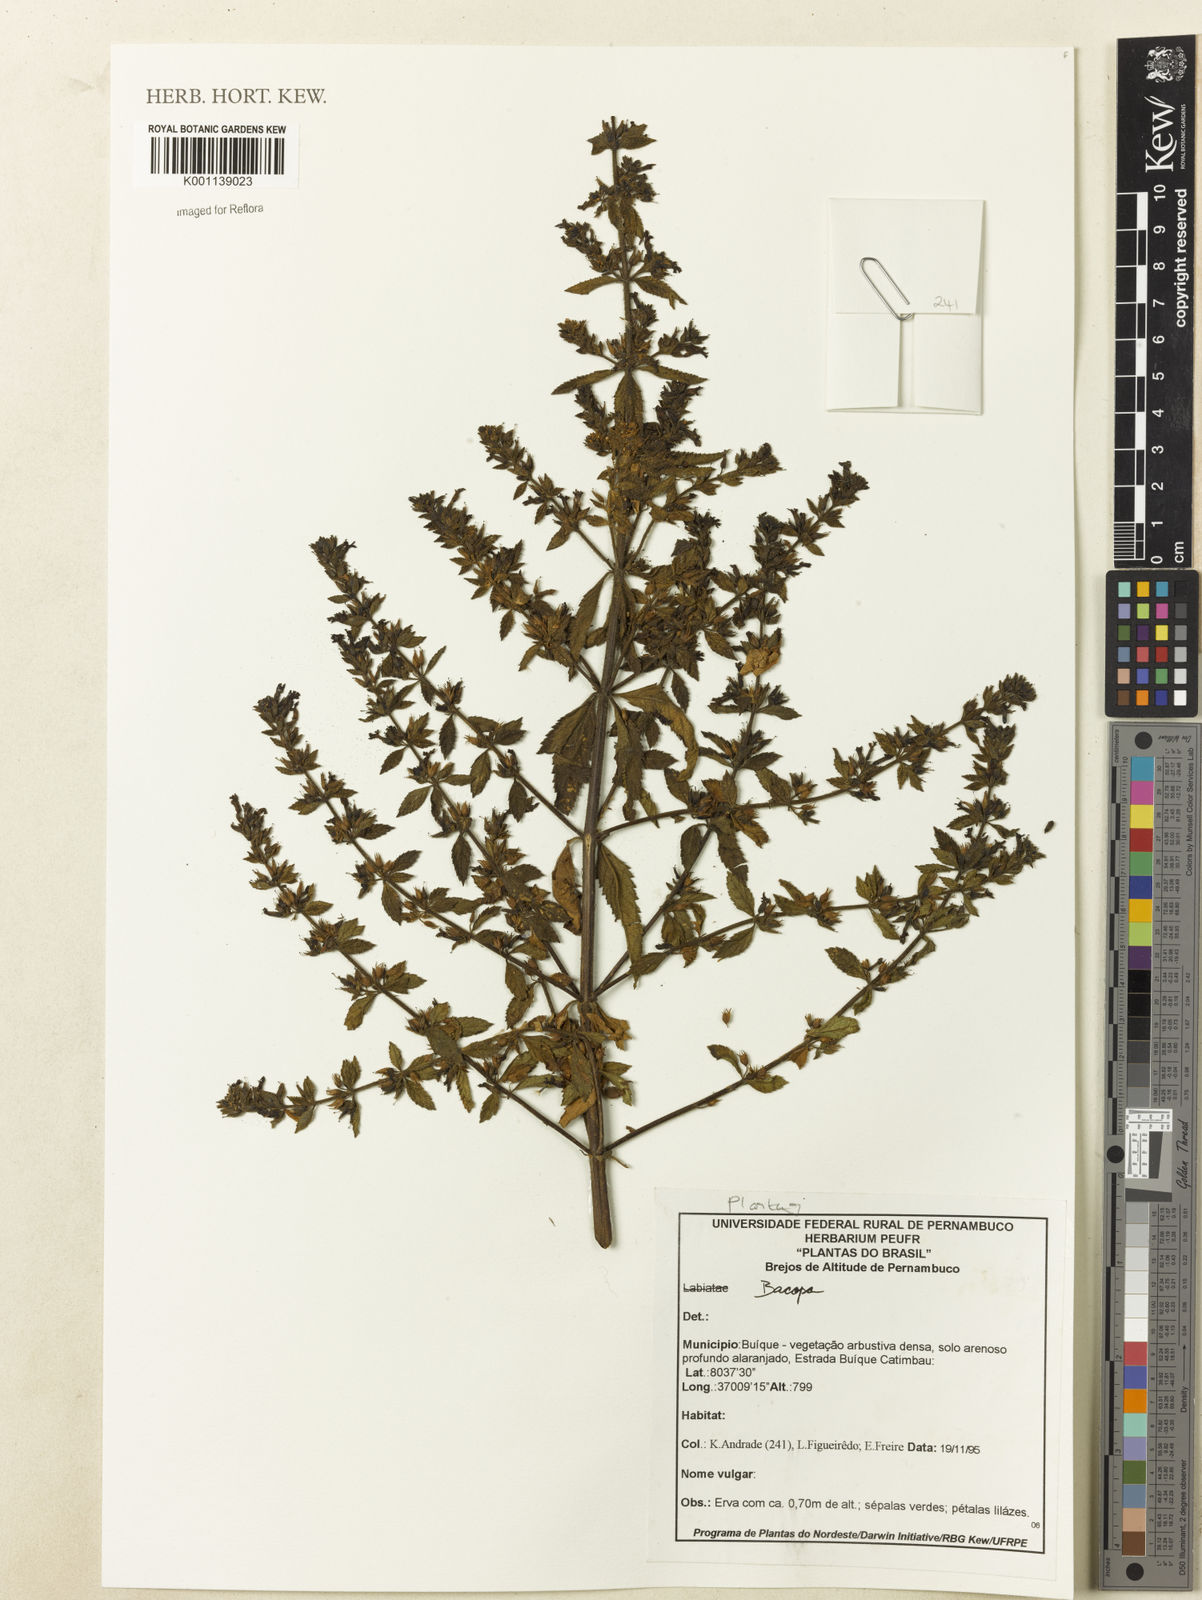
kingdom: Plantae
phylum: Tracheophyta
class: Magnoliopsida
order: Lamiales
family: Plantaginaceae
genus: Stemodia
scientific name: Stemodia foliosa
